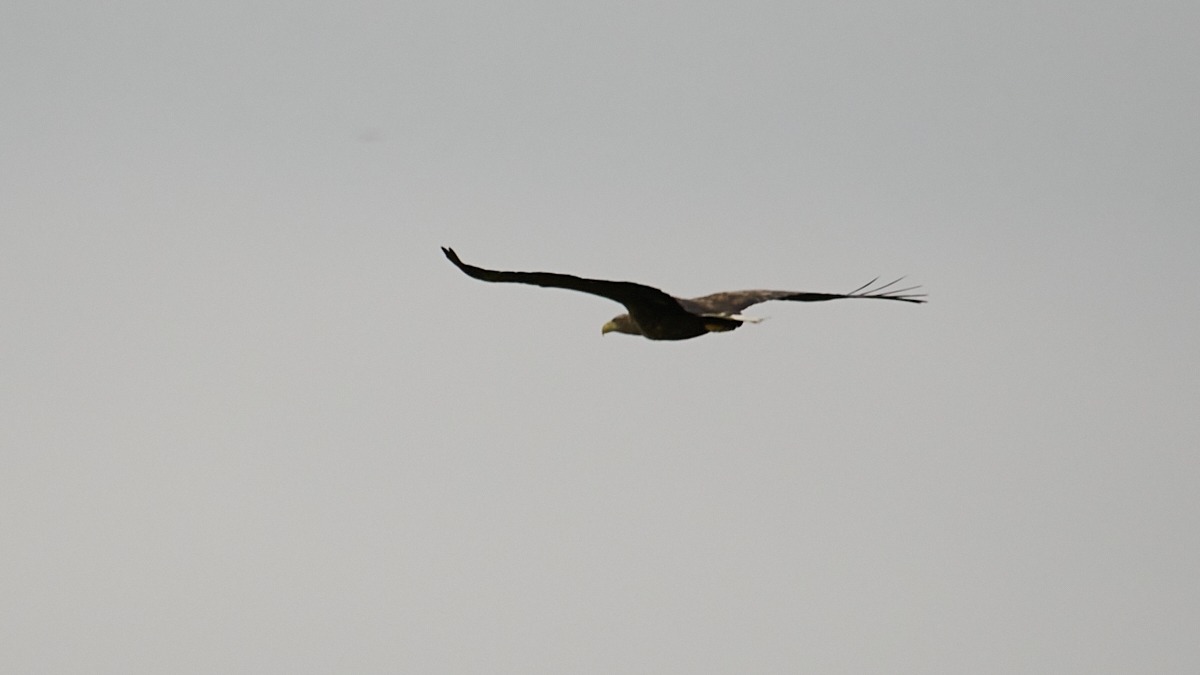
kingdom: Animalia
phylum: Chordata
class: Aves
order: Accipitriformes
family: Accipitridae
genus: Haliaeetus
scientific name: Haliaeetus albicilla
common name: Havørn
